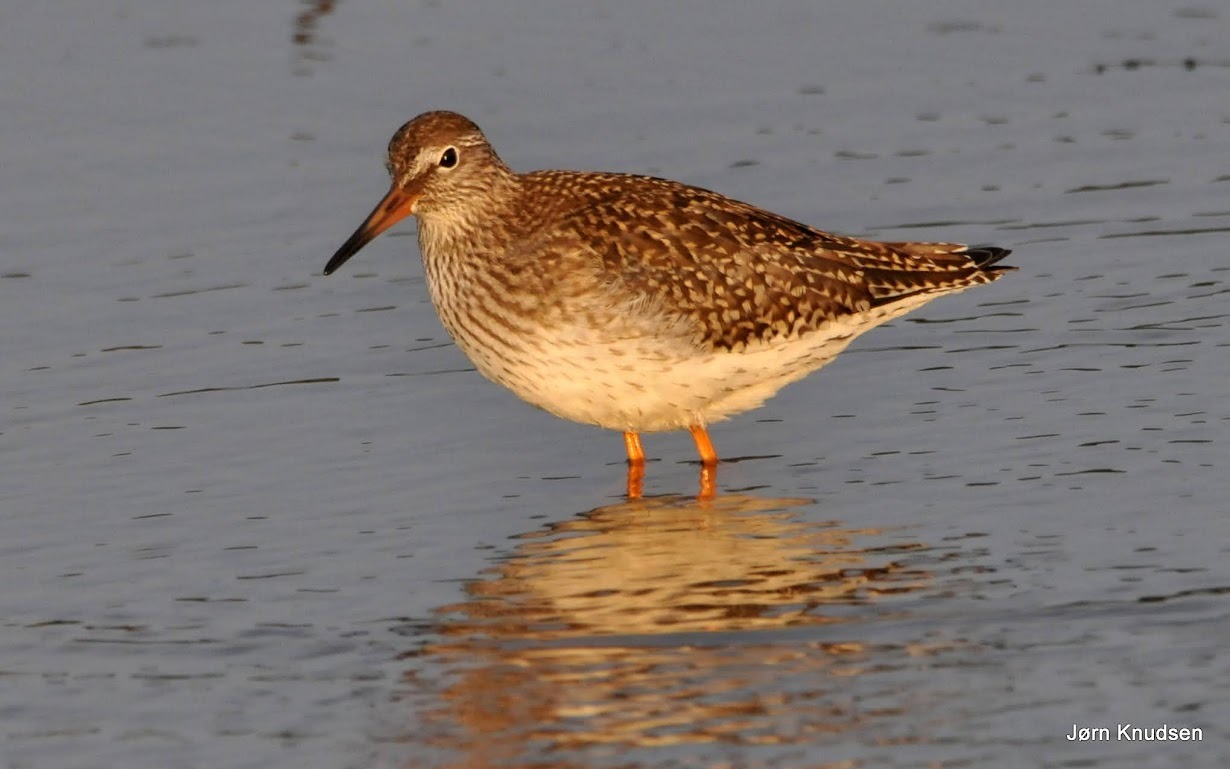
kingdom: Animalia
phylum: Chordata
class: Aves
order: Charadriiformes
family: Scolopacidae
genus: Tringa
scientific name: Tringa totanus
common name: Rødben
